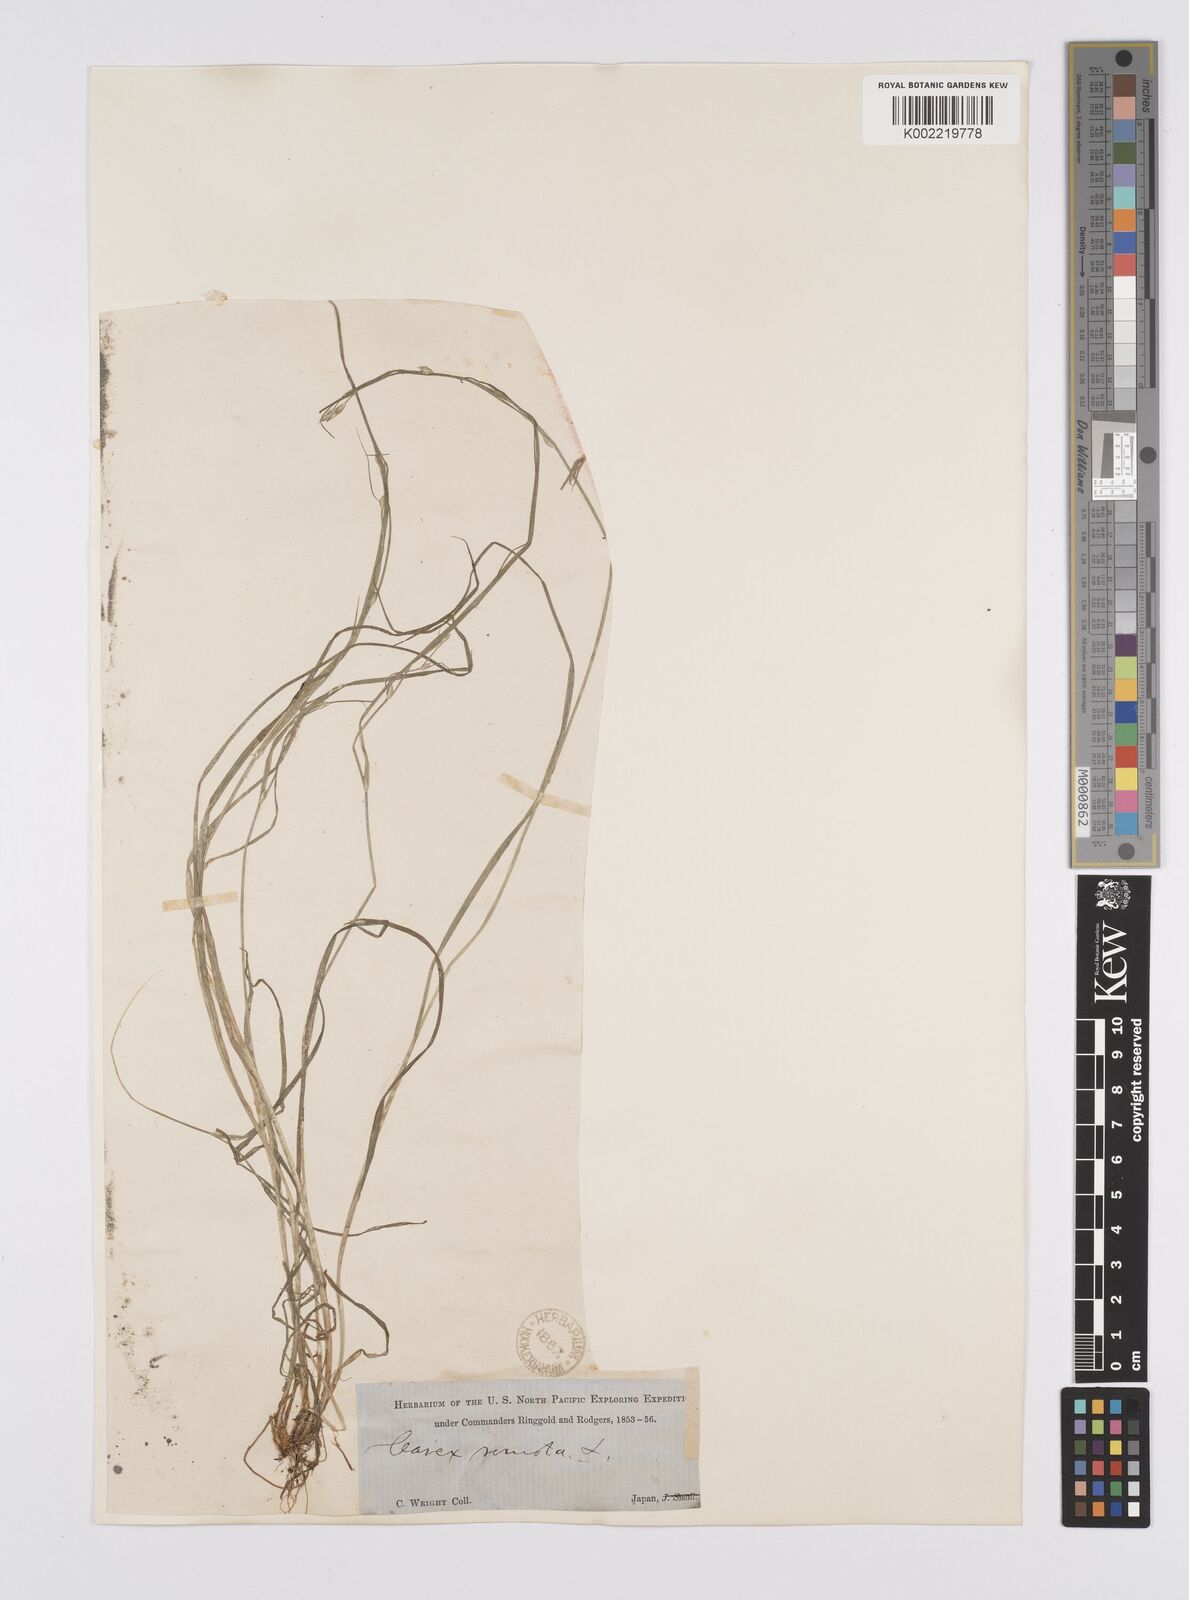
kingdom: Plantae
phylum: Tracheophyta
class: Liliopsida
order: Poales
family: Cyperaceae
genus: Carex
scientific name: Carex remota
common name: Remote sedge
